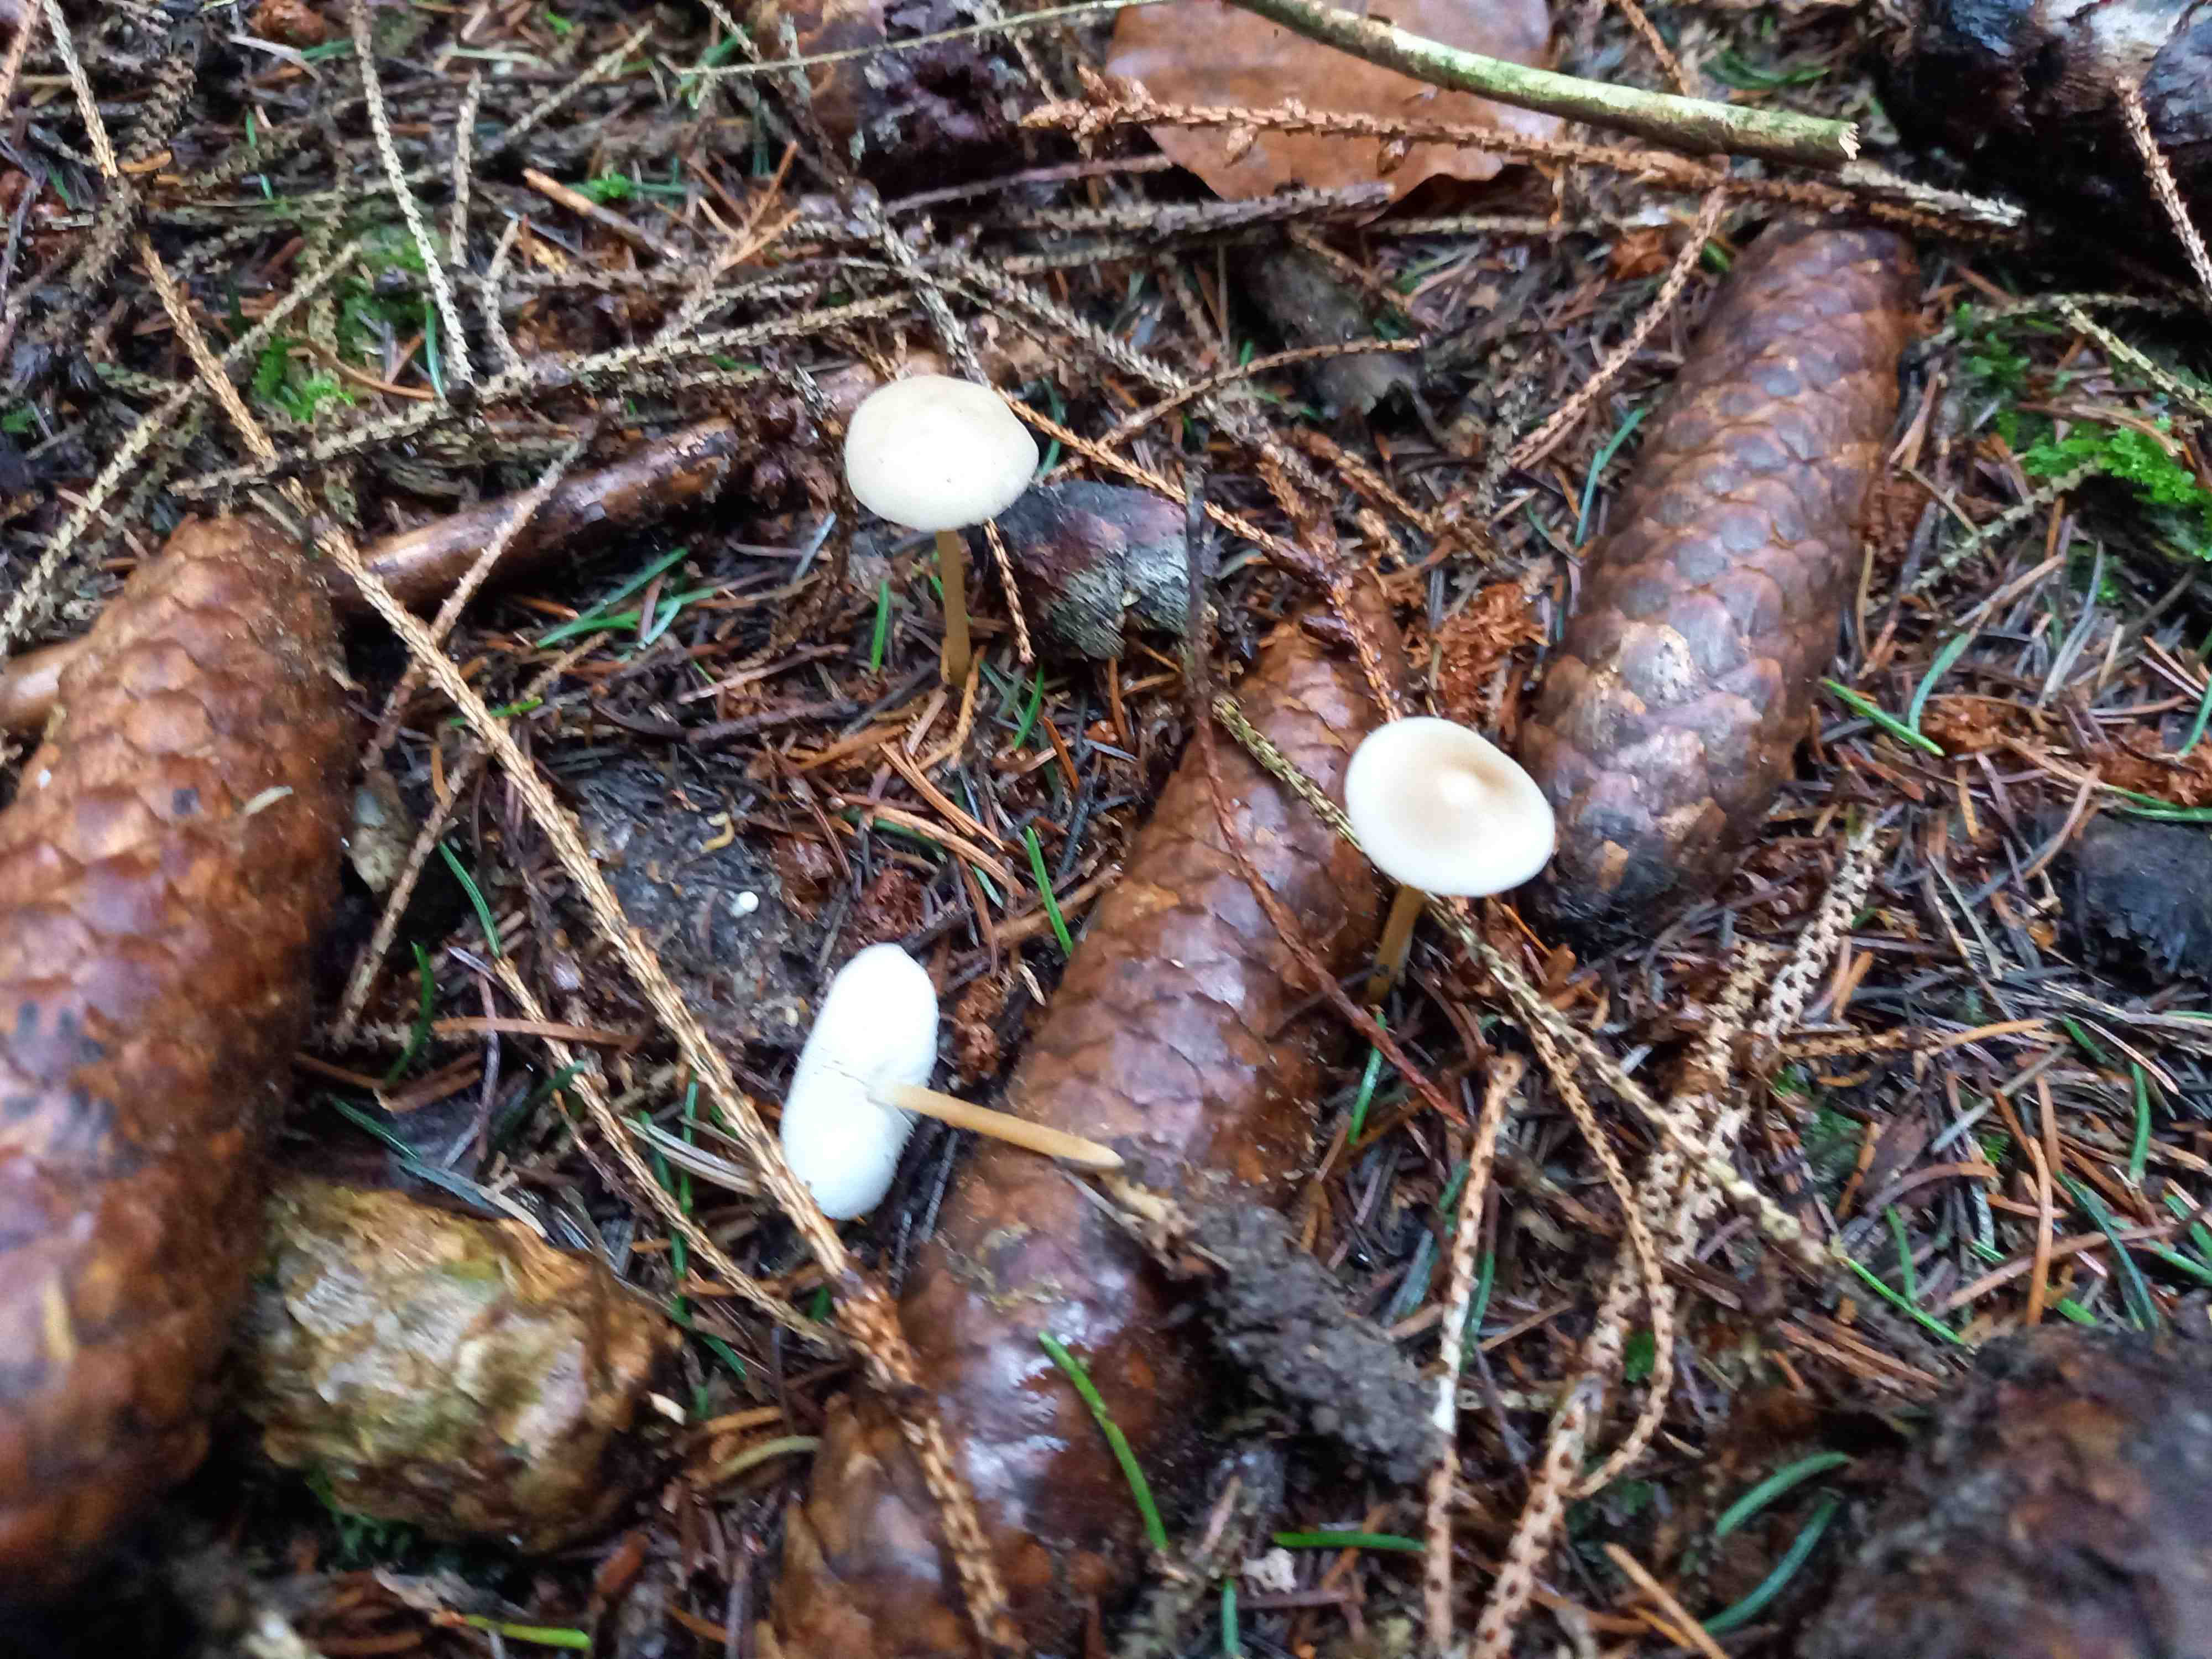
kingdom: Fungi
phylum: Basidiomycota
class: Agaricomycetes
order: Agaricales
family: Physalacriaceae
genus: Strobilurus
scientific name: Strobilurus esculentus
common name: gran-koglehat
